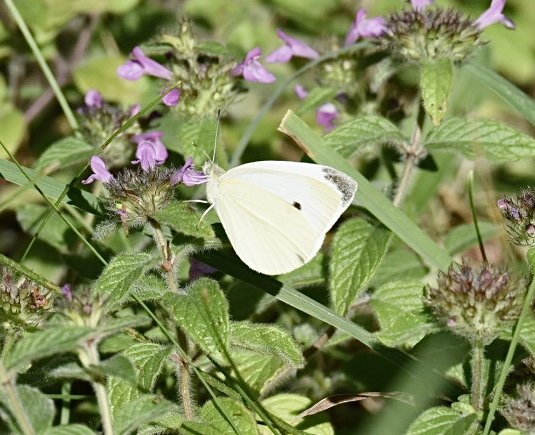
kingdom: Animalia
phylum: Arthropoda
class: Insecta
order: Lepidoptera
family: Pieridae
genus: Pieris
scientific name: Pieris rapae
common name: Cabbage White
